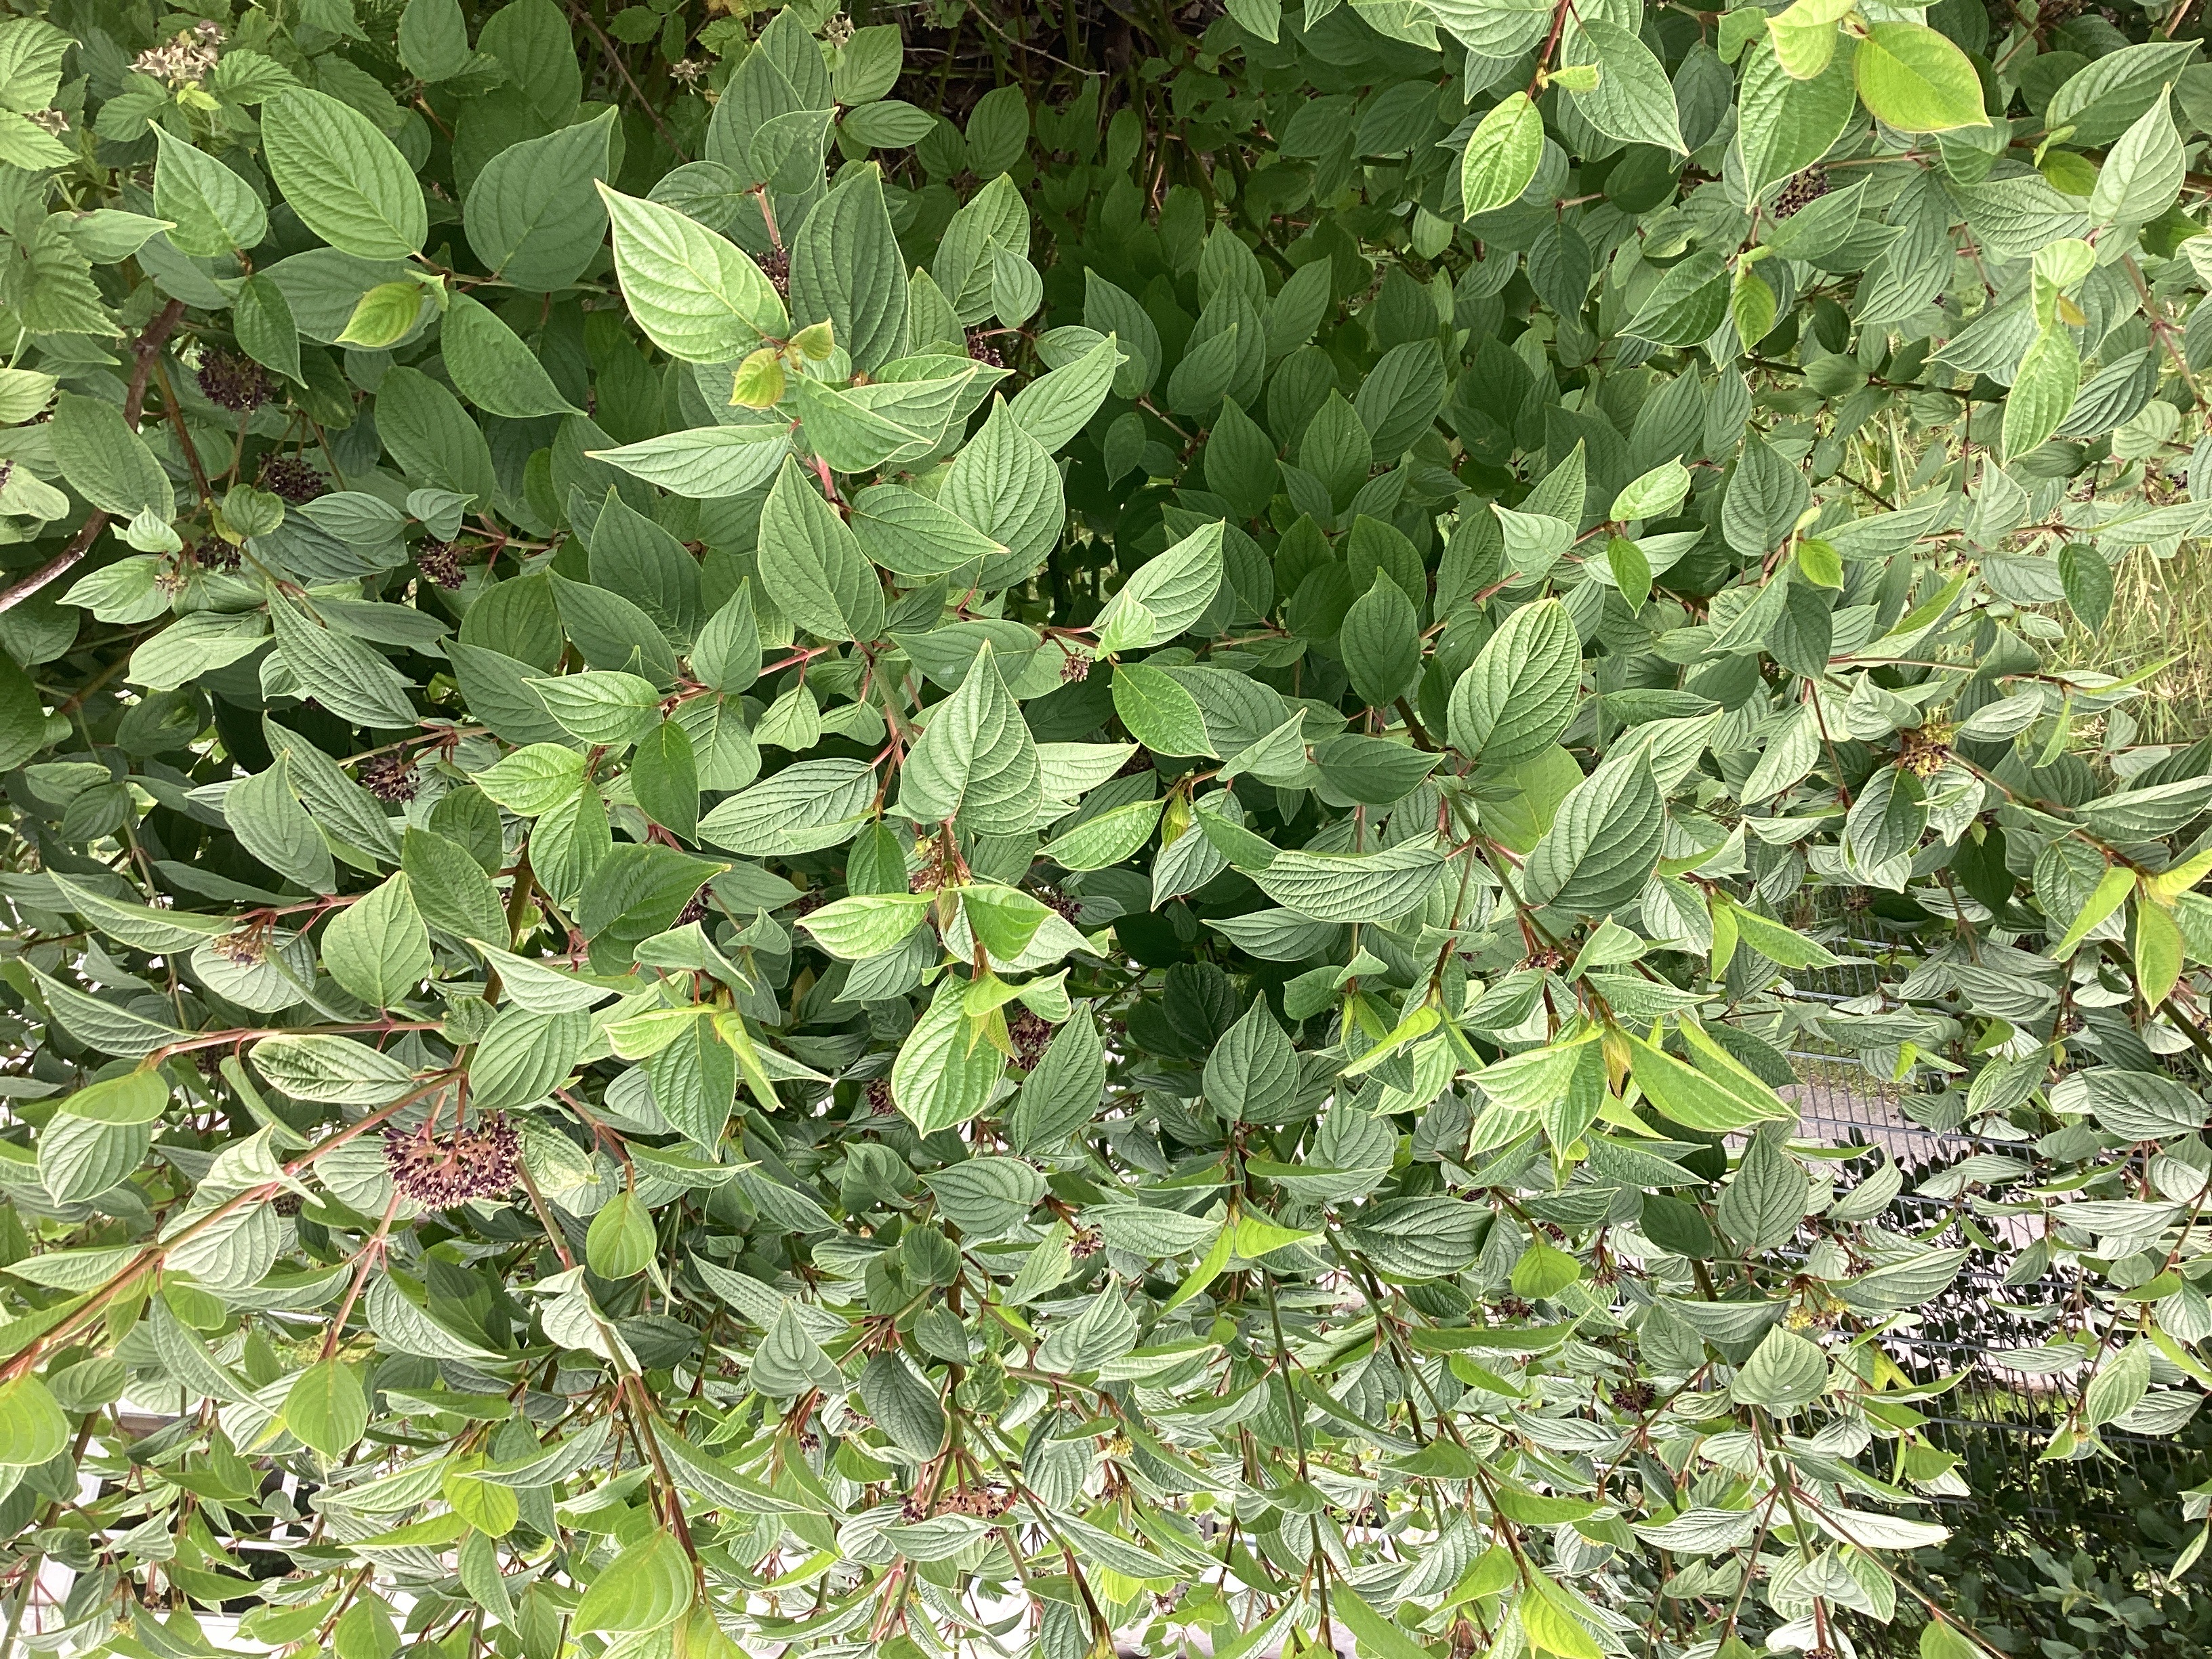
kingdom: Plantae
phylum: Tracheophyta
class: Magnoliopsida
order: Cornales
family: Cornaceae
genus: Cornus
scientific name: Cornus alba
